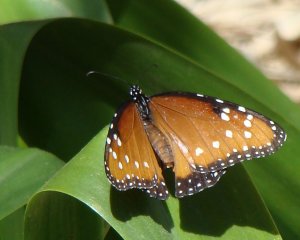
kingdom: Animalia
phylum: Arthropoda
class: Insecta
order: Lepidoptera
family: Nymphalidae
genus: Danaus
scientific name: Danaus gilippus
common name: Queen
